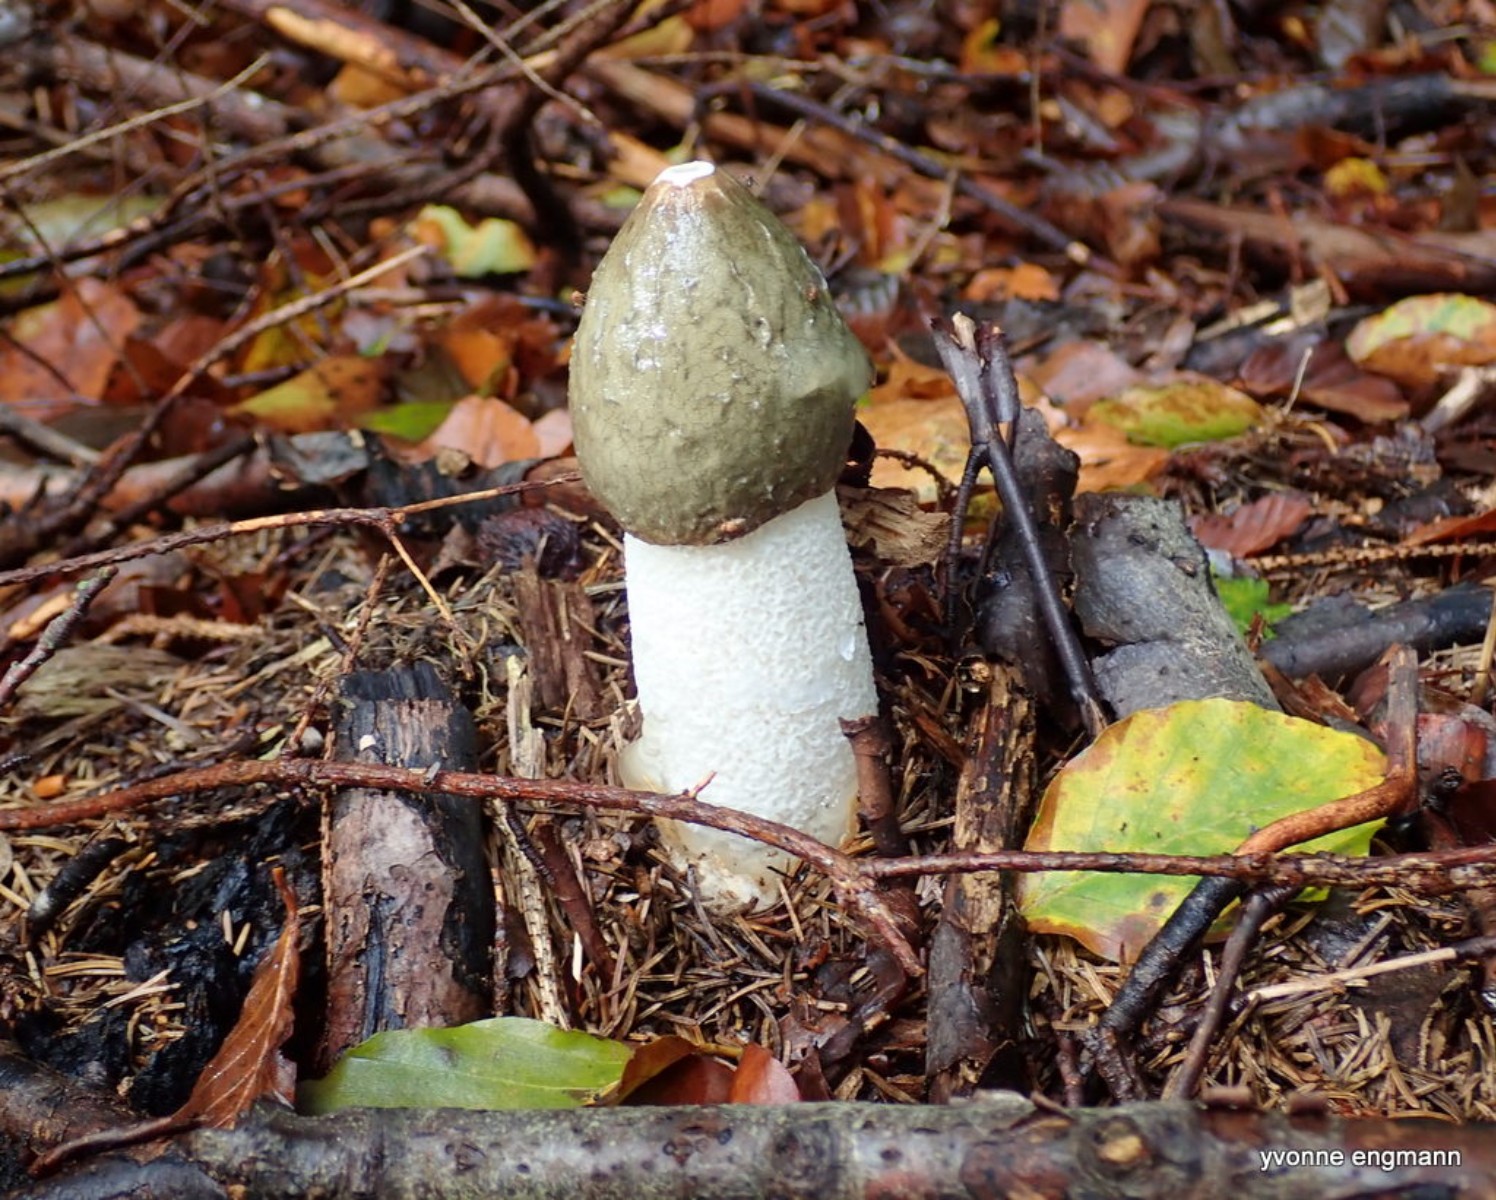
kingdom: Fungi
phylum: Basidiomycota
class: Agaricomycetes
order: Phallales
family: Phallaceae
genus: Phallus
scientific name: Phallus impudicus
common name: almindelig stinksvamp
